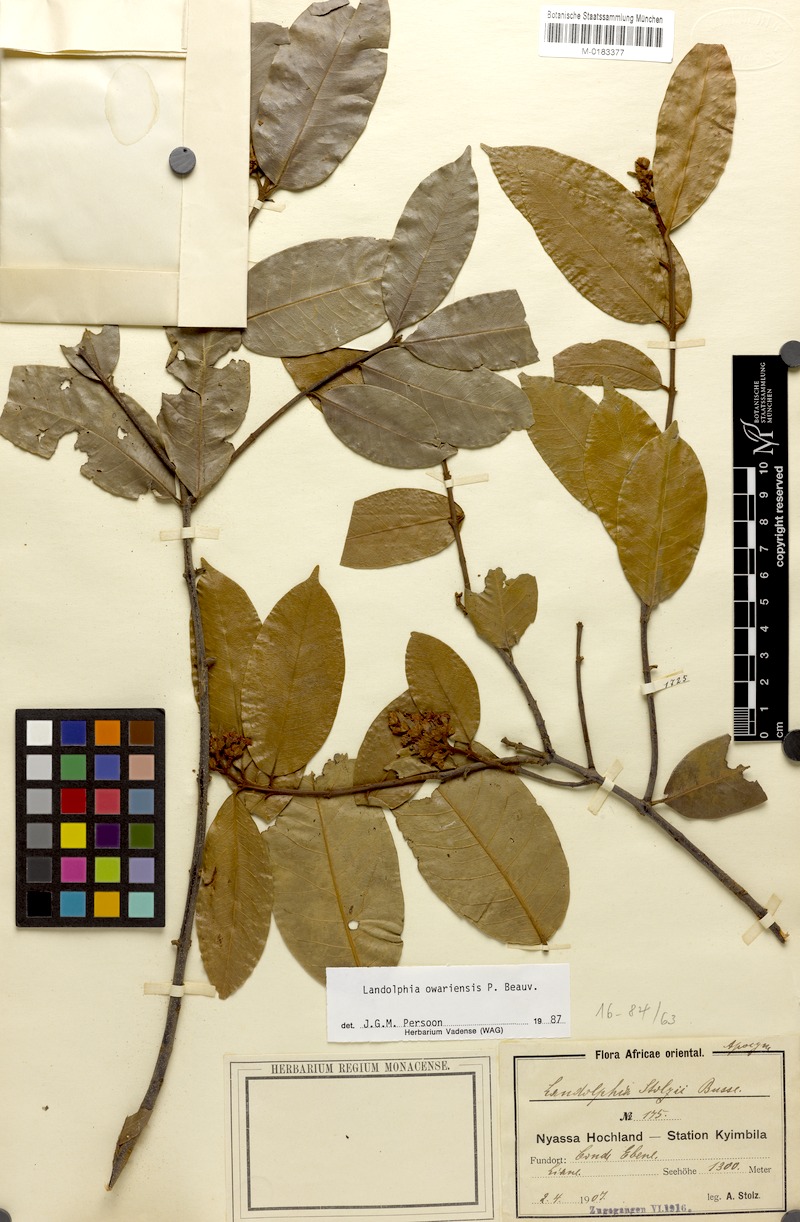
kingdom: Plantae
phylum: Tracheophyta
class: Magnoliopsida
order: Gentianales
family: Apocynaceae
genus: Landolphia
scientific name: Landolphia owariensis
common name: White-ball-rubber
